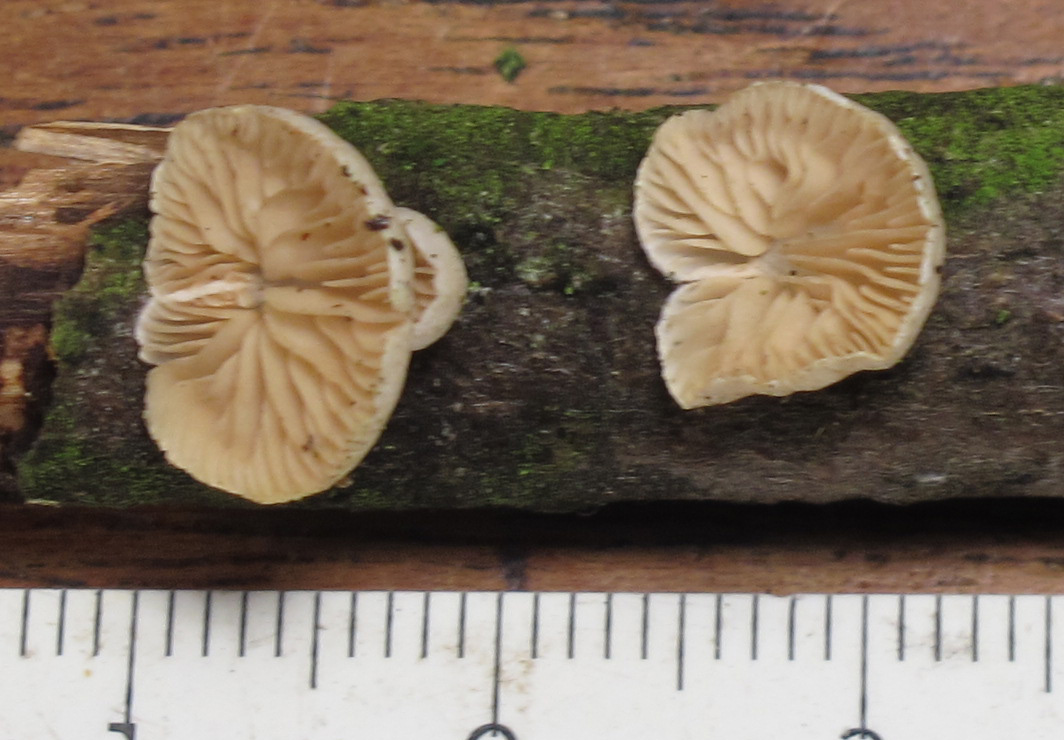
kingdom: Fungi
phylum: Basidiomycota
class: Agaricomycetes
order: Agaricales
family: Crepidotaceae
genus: Crepidotus
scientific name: Crepidotus cesatii
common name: almindelig muslingesvamp
